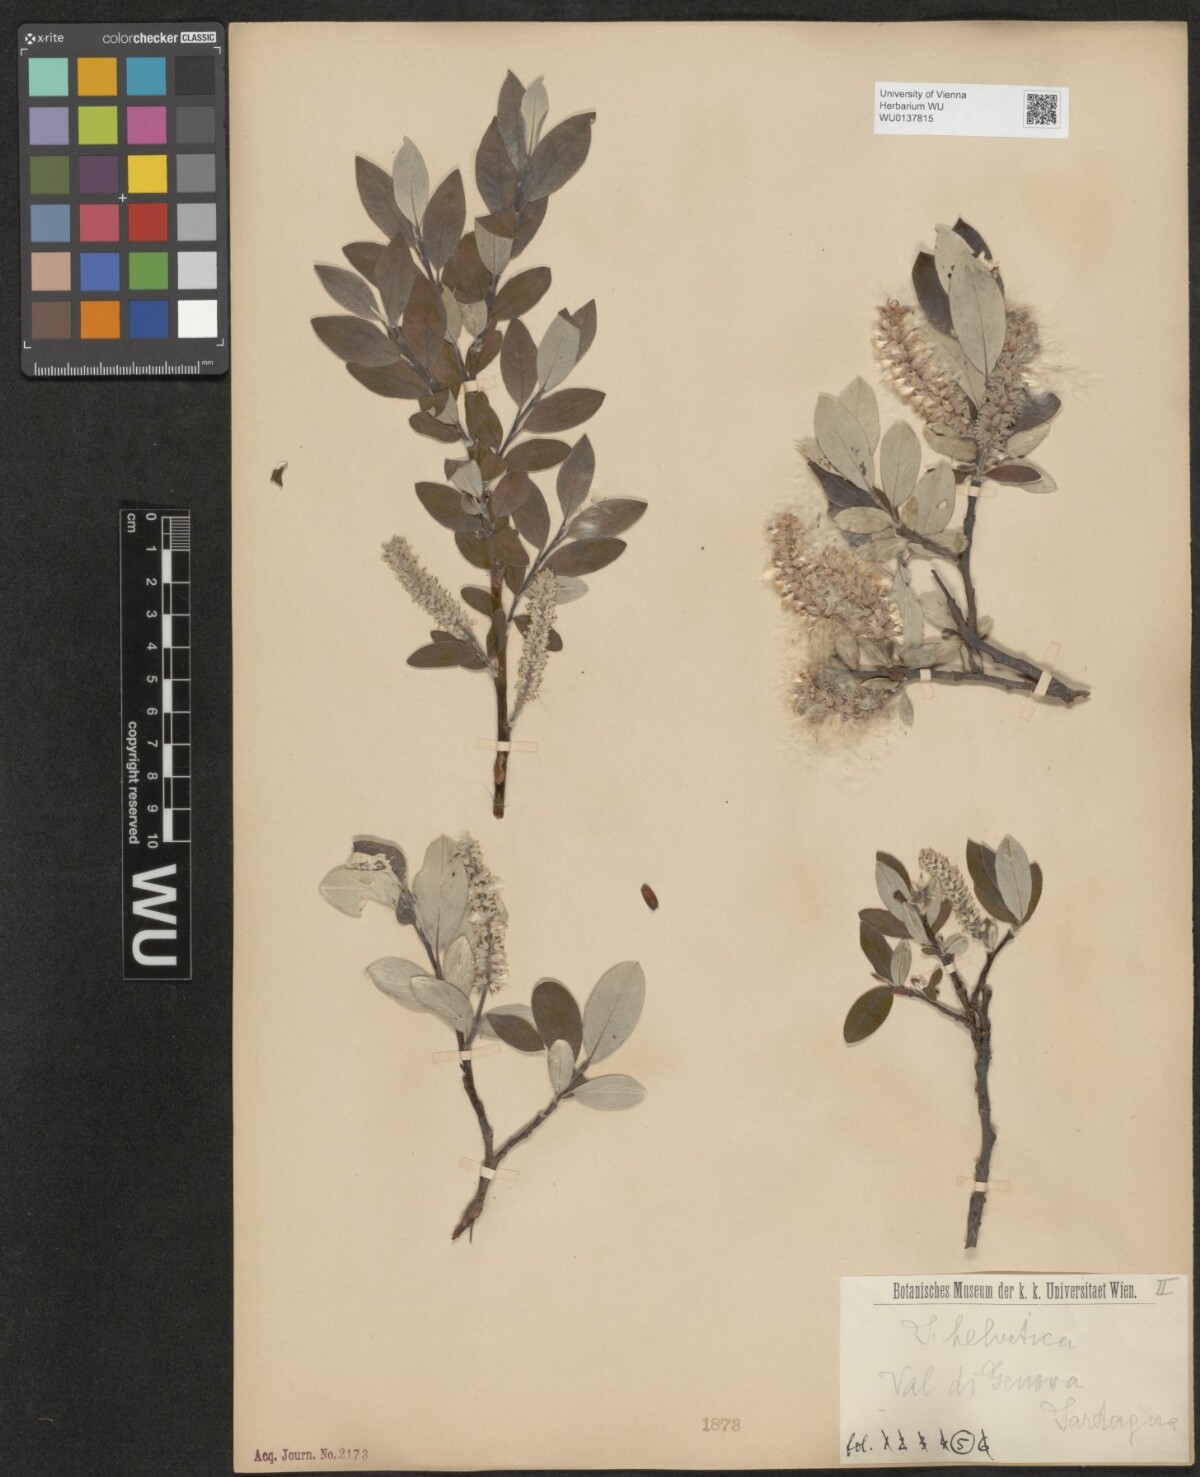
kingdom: Plantae
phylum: Tracheophyta
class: Magnoliopsida
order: Malpighiales
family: Salicaceae
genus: Salix
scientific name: Salix helvetica
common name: Swiss willow
